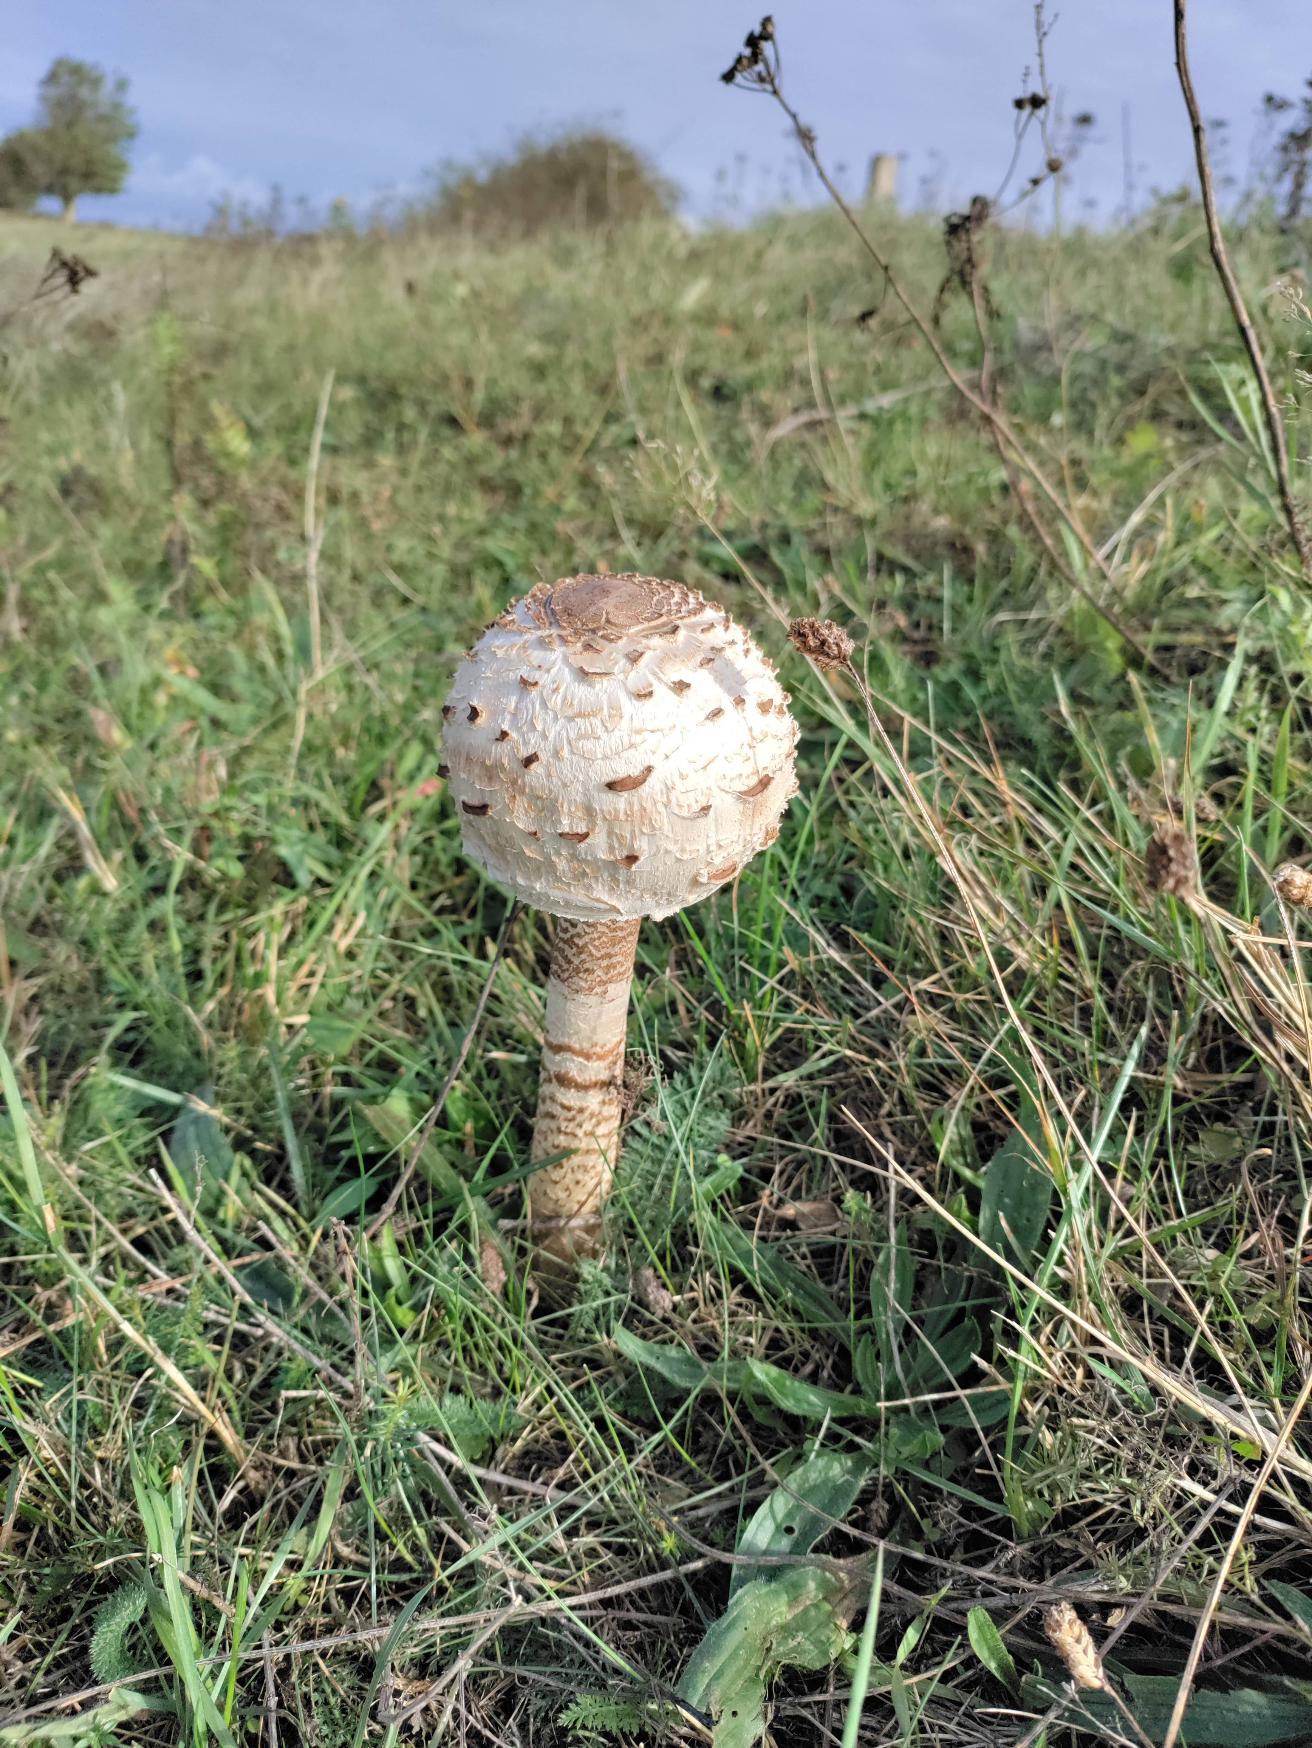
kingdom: Fungi
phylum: Basidiomycota
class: Agaricomycetes
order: Agaricales
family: Agaricaceae
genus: Macrolepiota
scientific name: Macrolepiota procera
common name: Stor kæmpeparasolhat
